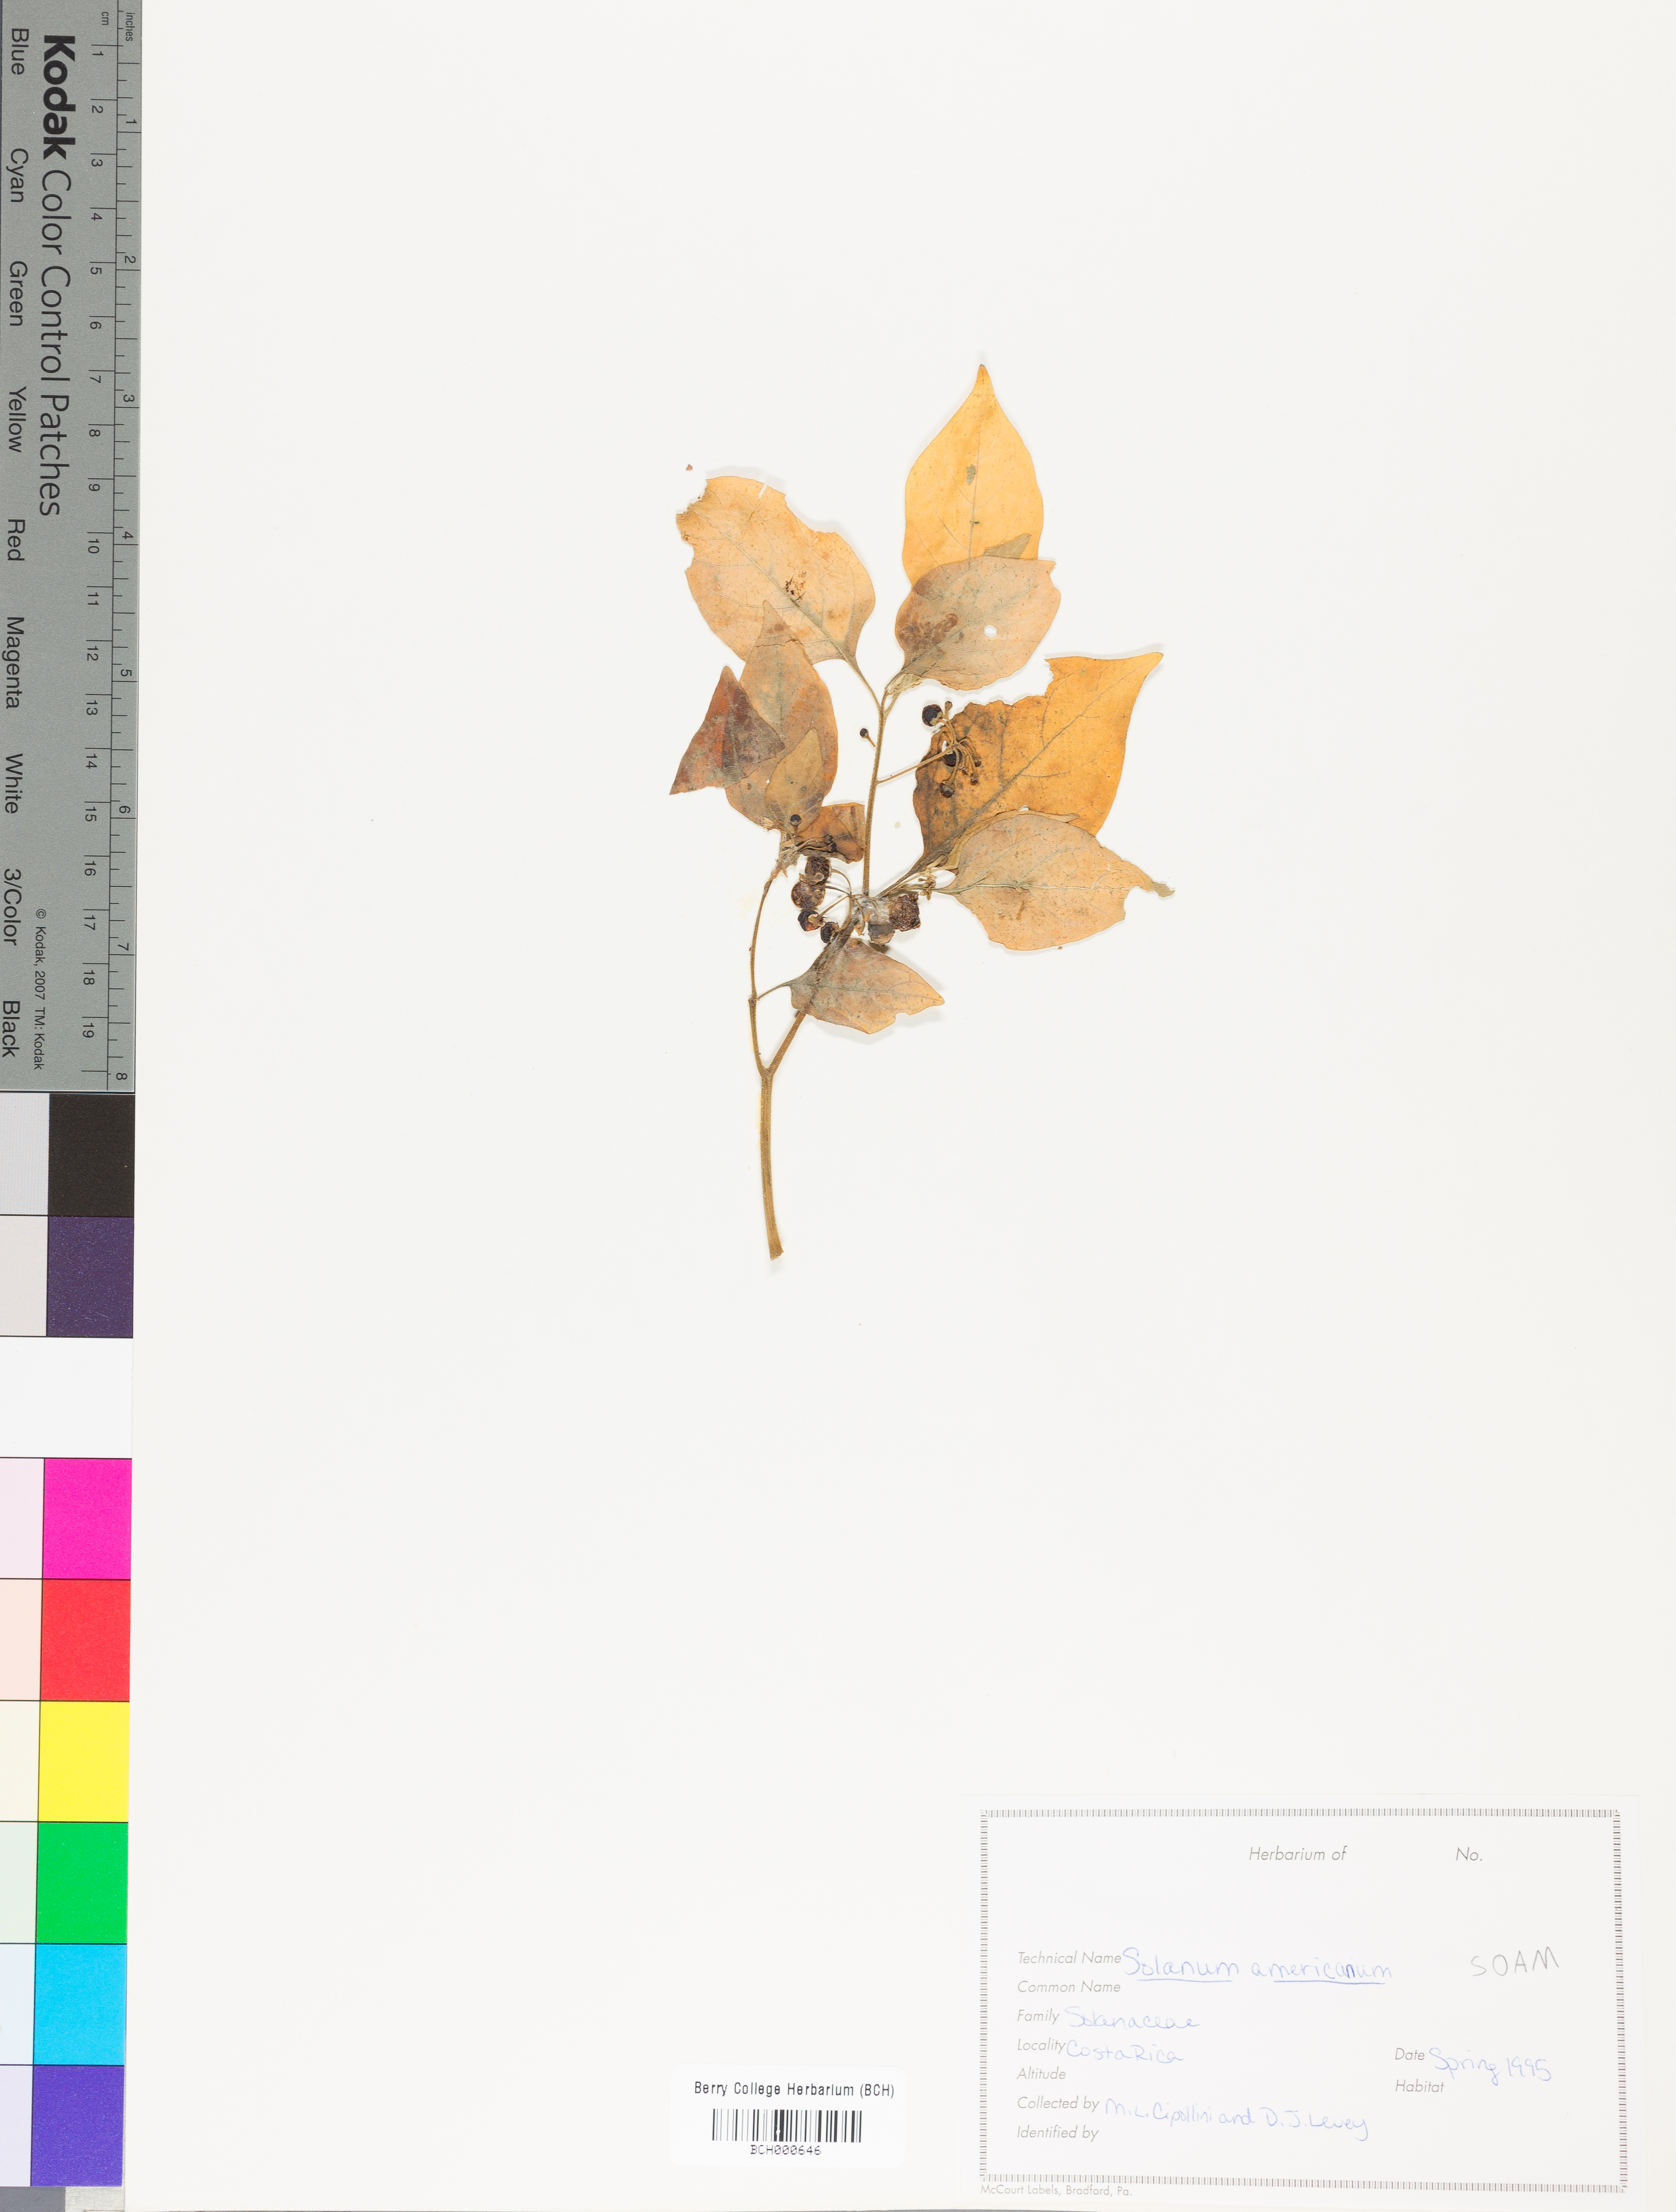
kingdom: Plantae
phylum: Tracheophyta
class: Magnoliopsida
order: Solanales
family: Solanaceae
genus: Solanum
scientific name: Solanum americanum
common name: American black nightshade
